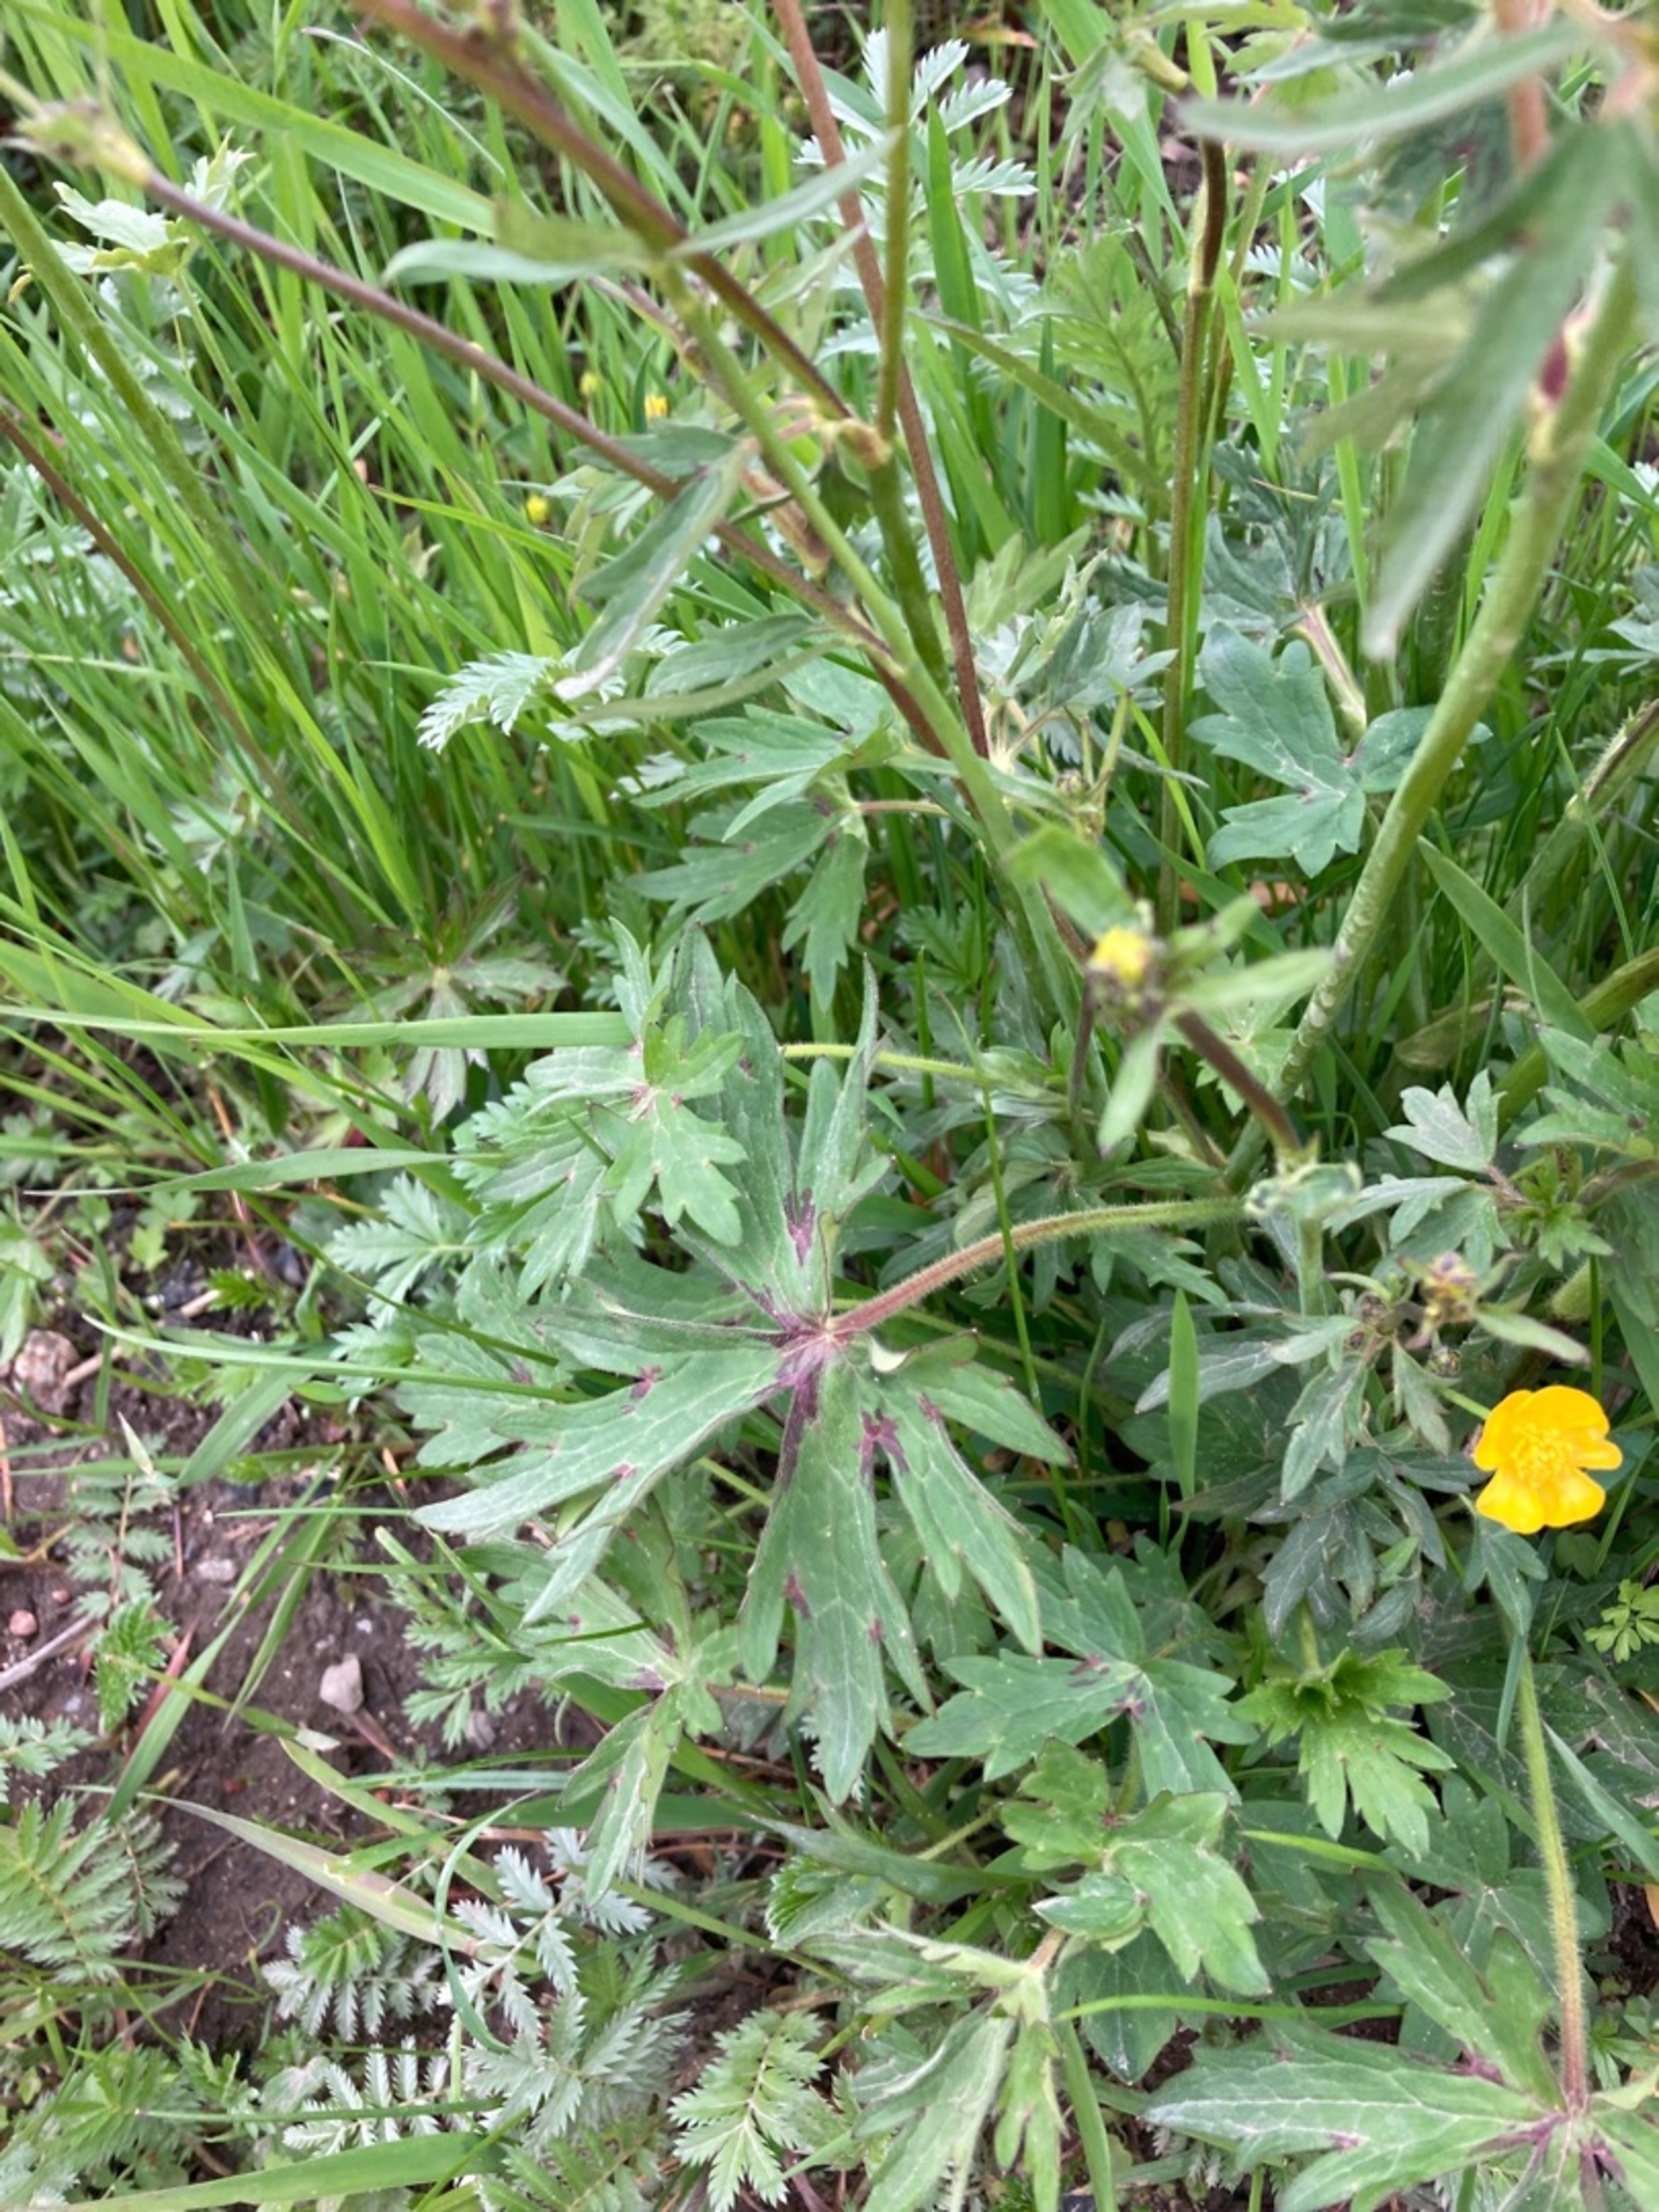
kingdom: Plantae
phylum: Tracheophyta
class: Magnoliopsida
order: Ranunculales
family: Ranunculaceae
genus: Ranunculus
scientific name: Ranunculus acris
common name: Bidende ranunkel
